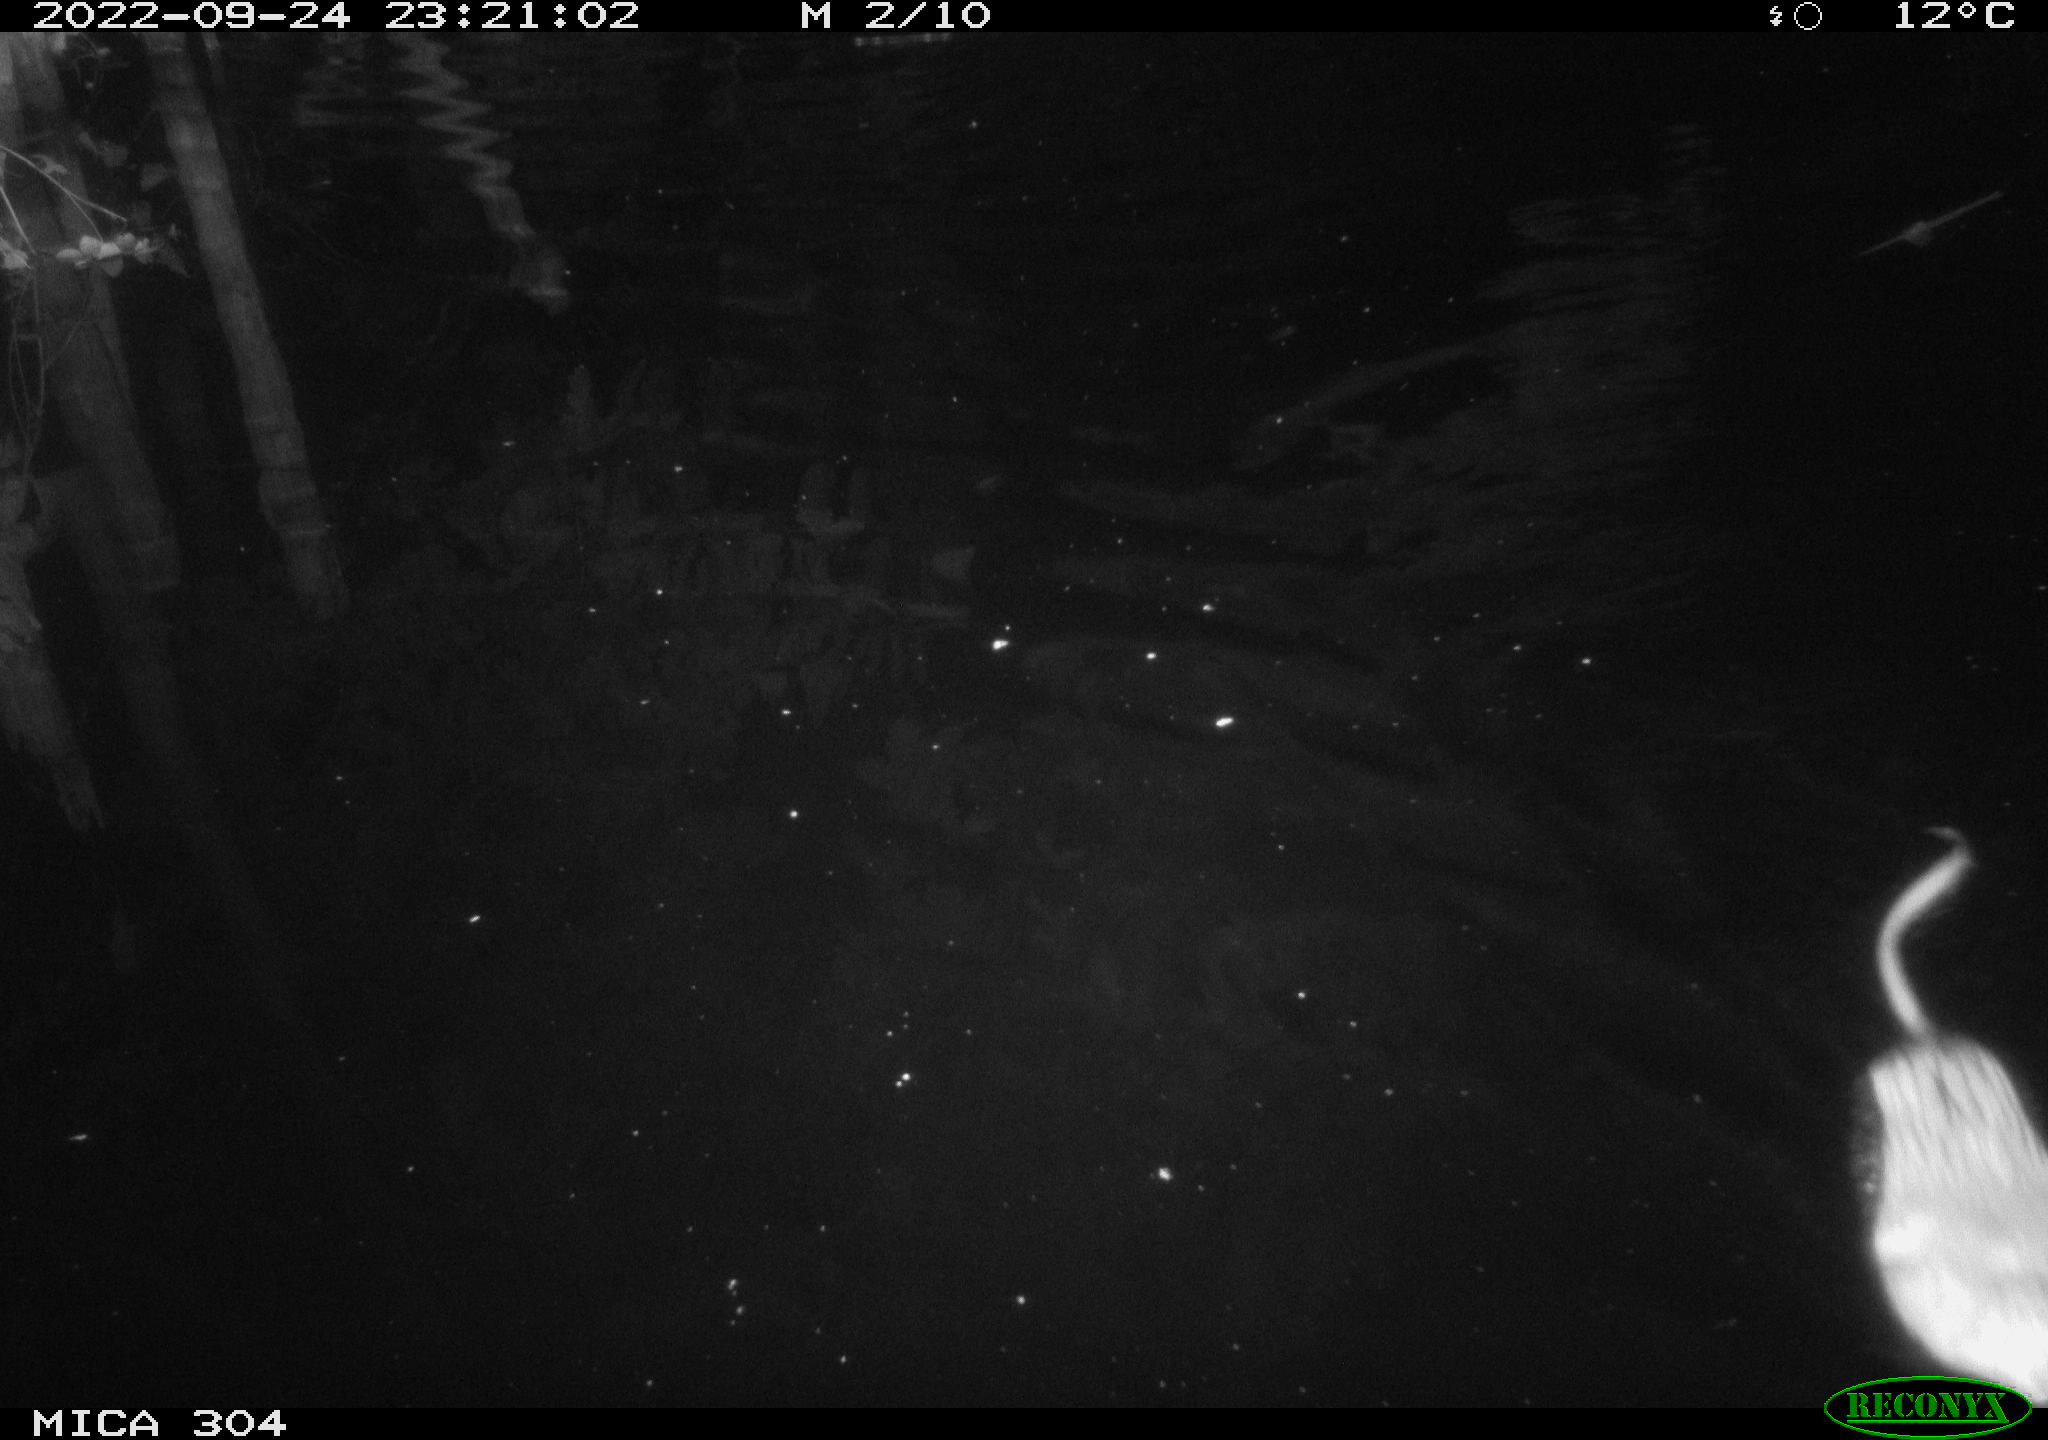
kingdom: Animalia
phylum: Chordata
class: Mammalia
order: Rodentia
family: Cricetidae
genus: Ondatra
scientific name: Ondatra zibethicus
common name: Muskrat
